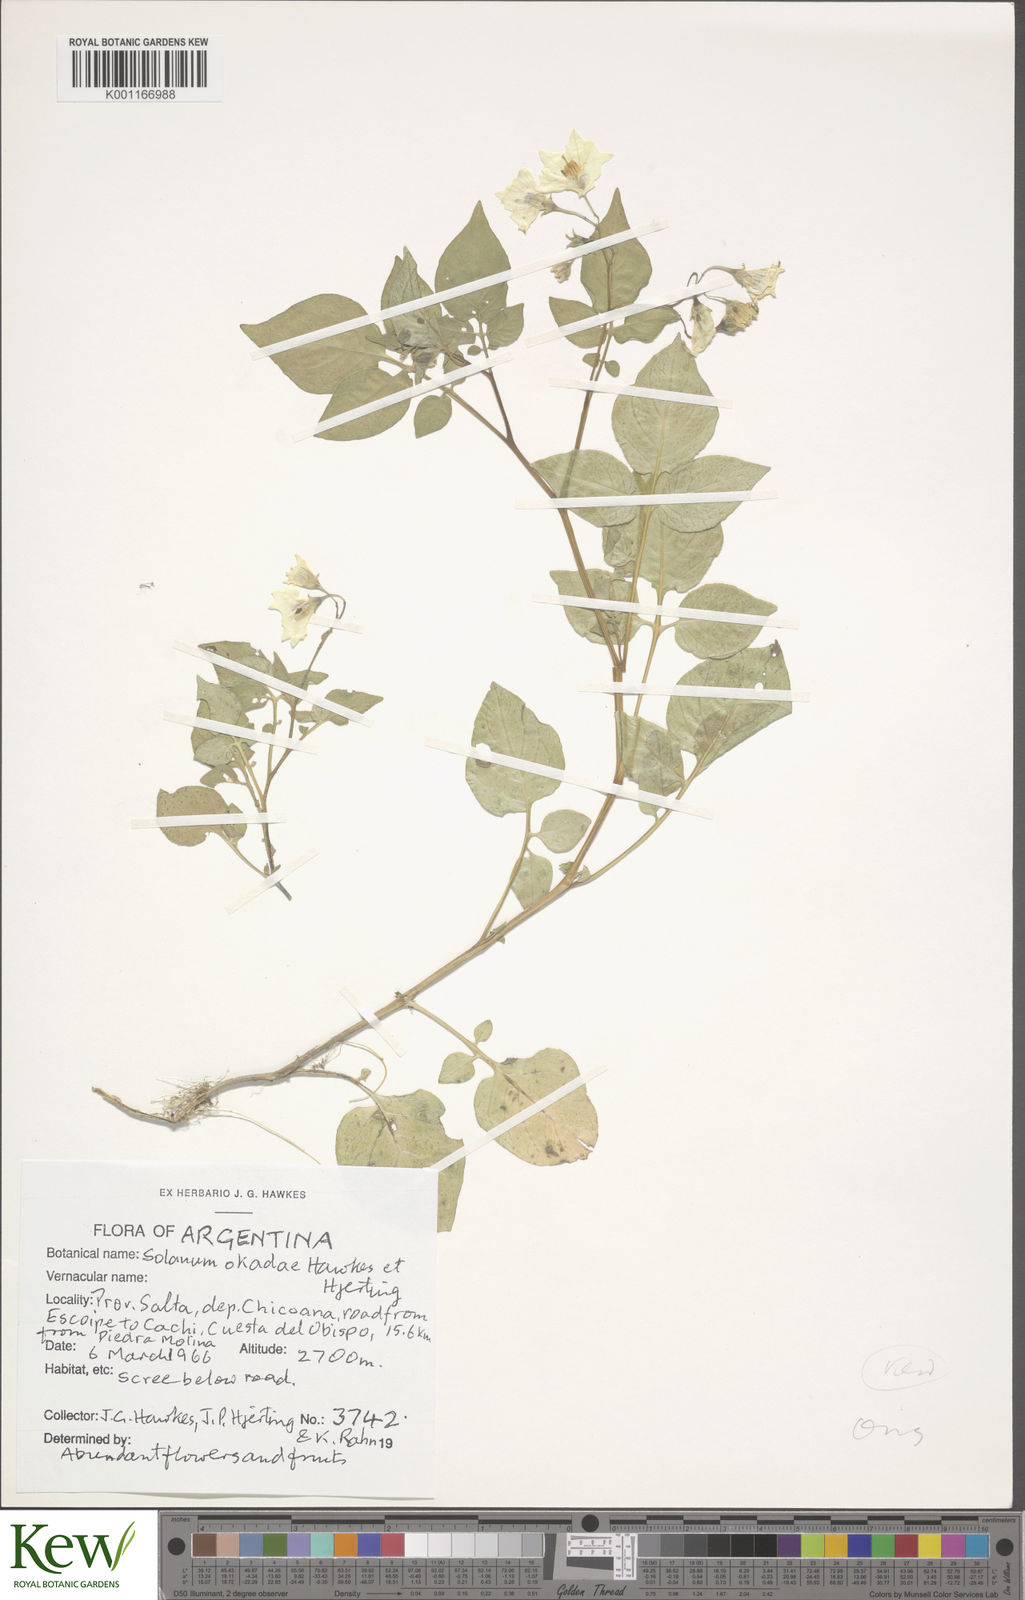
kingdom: Plantae
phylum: Tracheophyta
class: Magnoliopsida
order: Solanales
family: Solanaceae
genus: Solanum
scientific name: Solanum okadae
